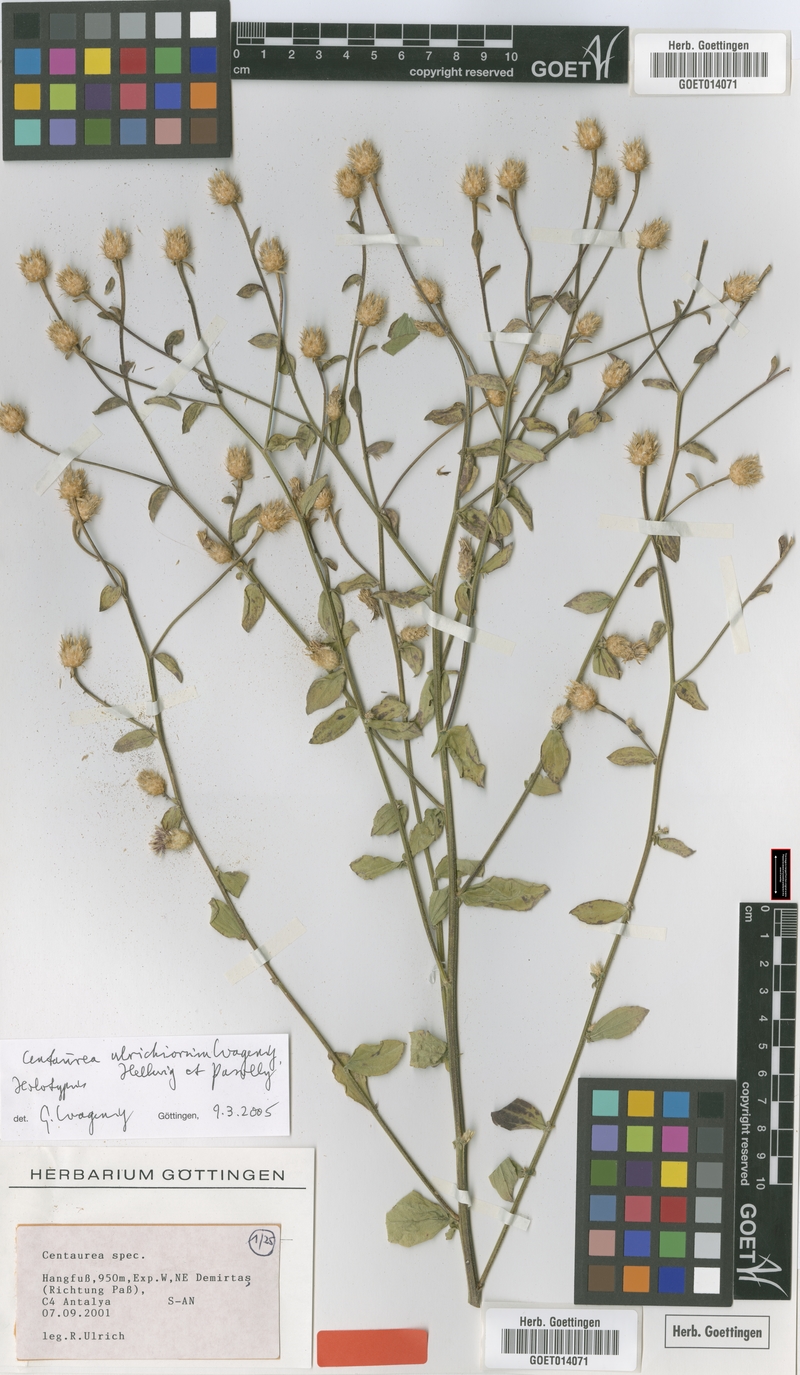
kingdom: Plantae
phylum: Tracheophyta
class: Magnoliopsida
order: Asterales
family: Asteraceae
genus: Centaurea
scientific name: Centaurea ulrichiorum
